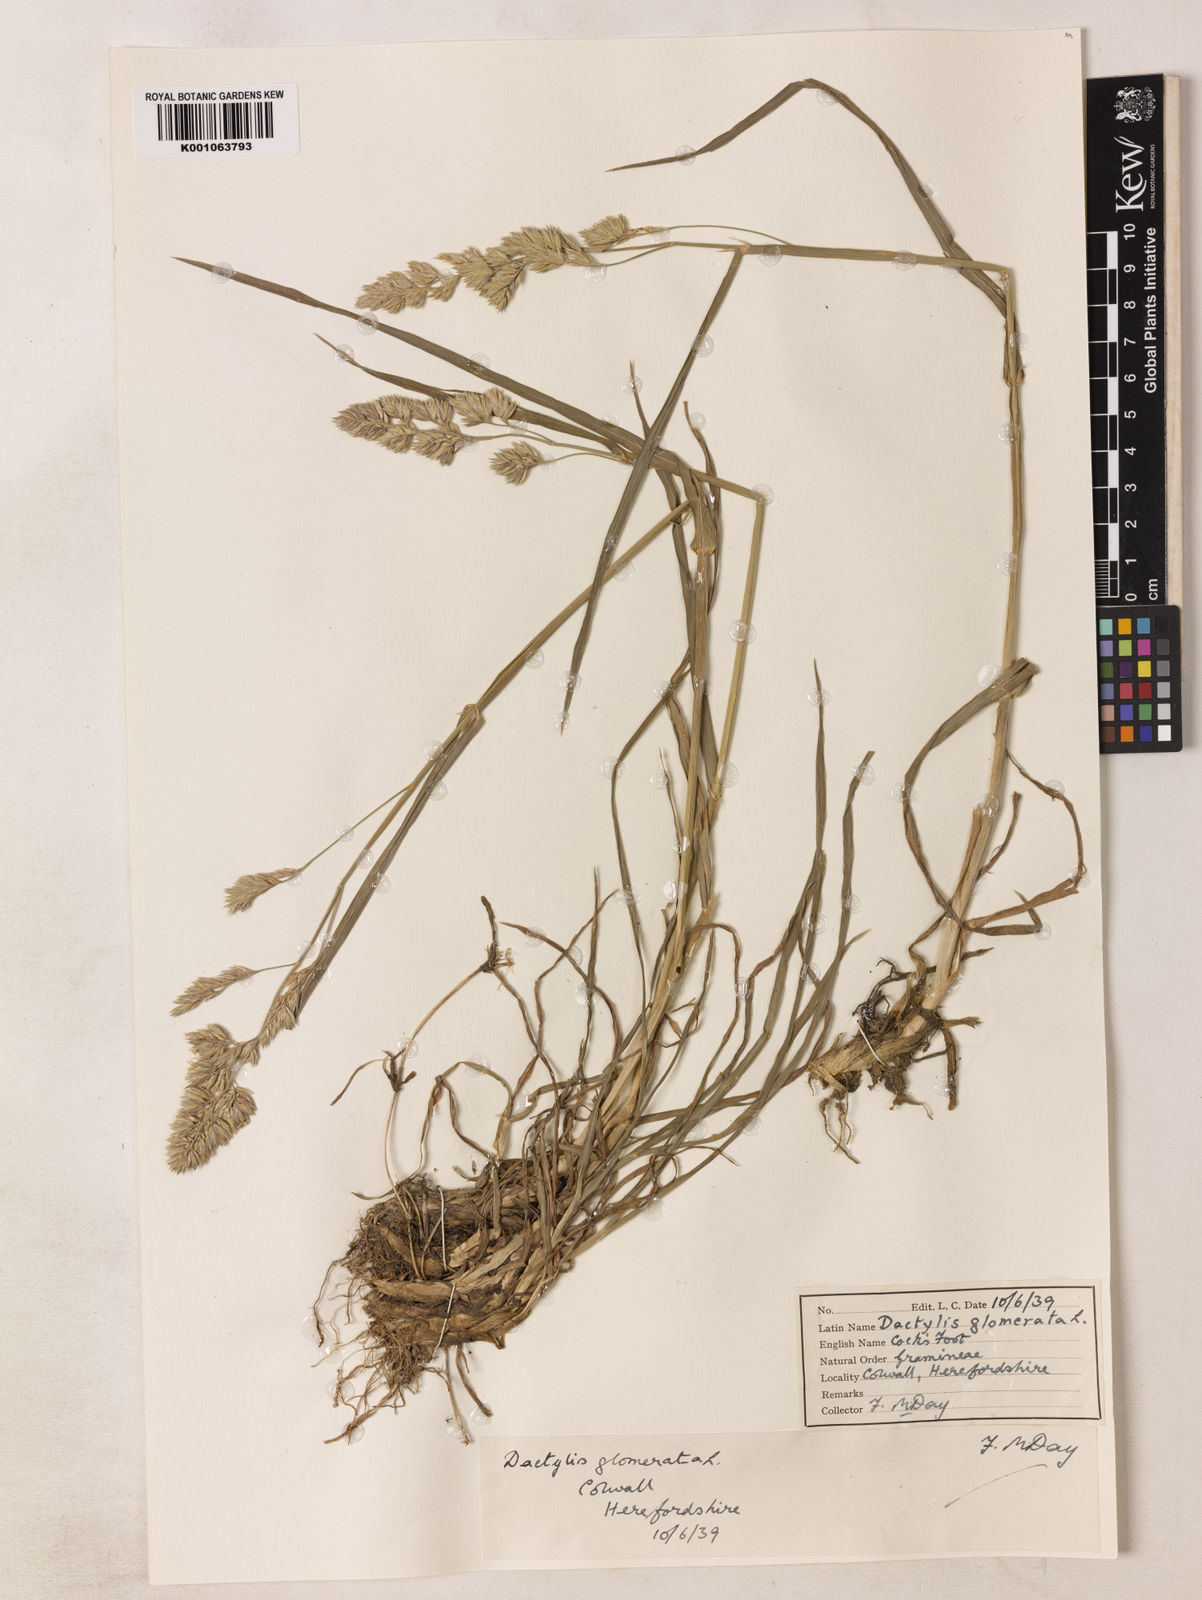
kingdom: Plantae
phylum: Tracheophyta
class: Liliopsida
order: Poales
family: Poaceae
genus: Dactylis
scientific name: Dactylis glomerata
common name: Orchardgrass
